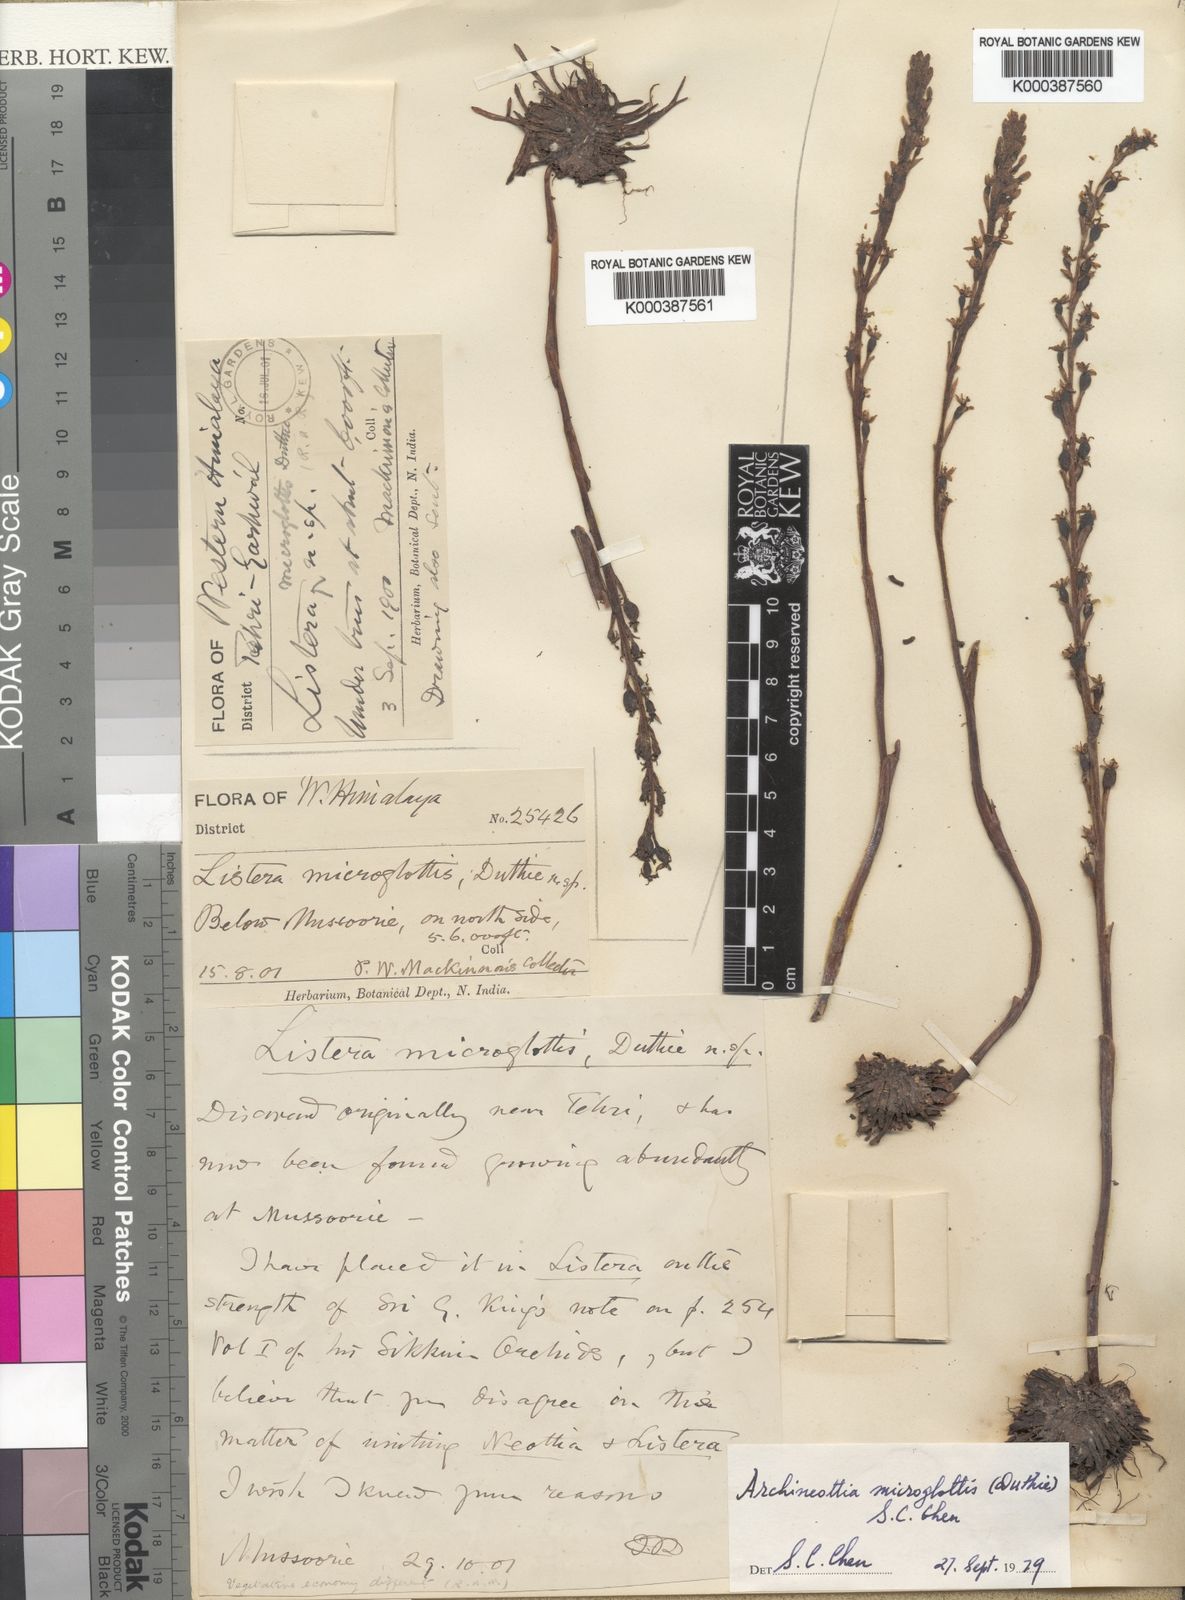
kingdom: Plantae
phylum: Tracheophyta
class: Liliopsida
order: Asparagales
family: Orchidaceae
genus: Neottia
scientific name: Neottia microglottis
